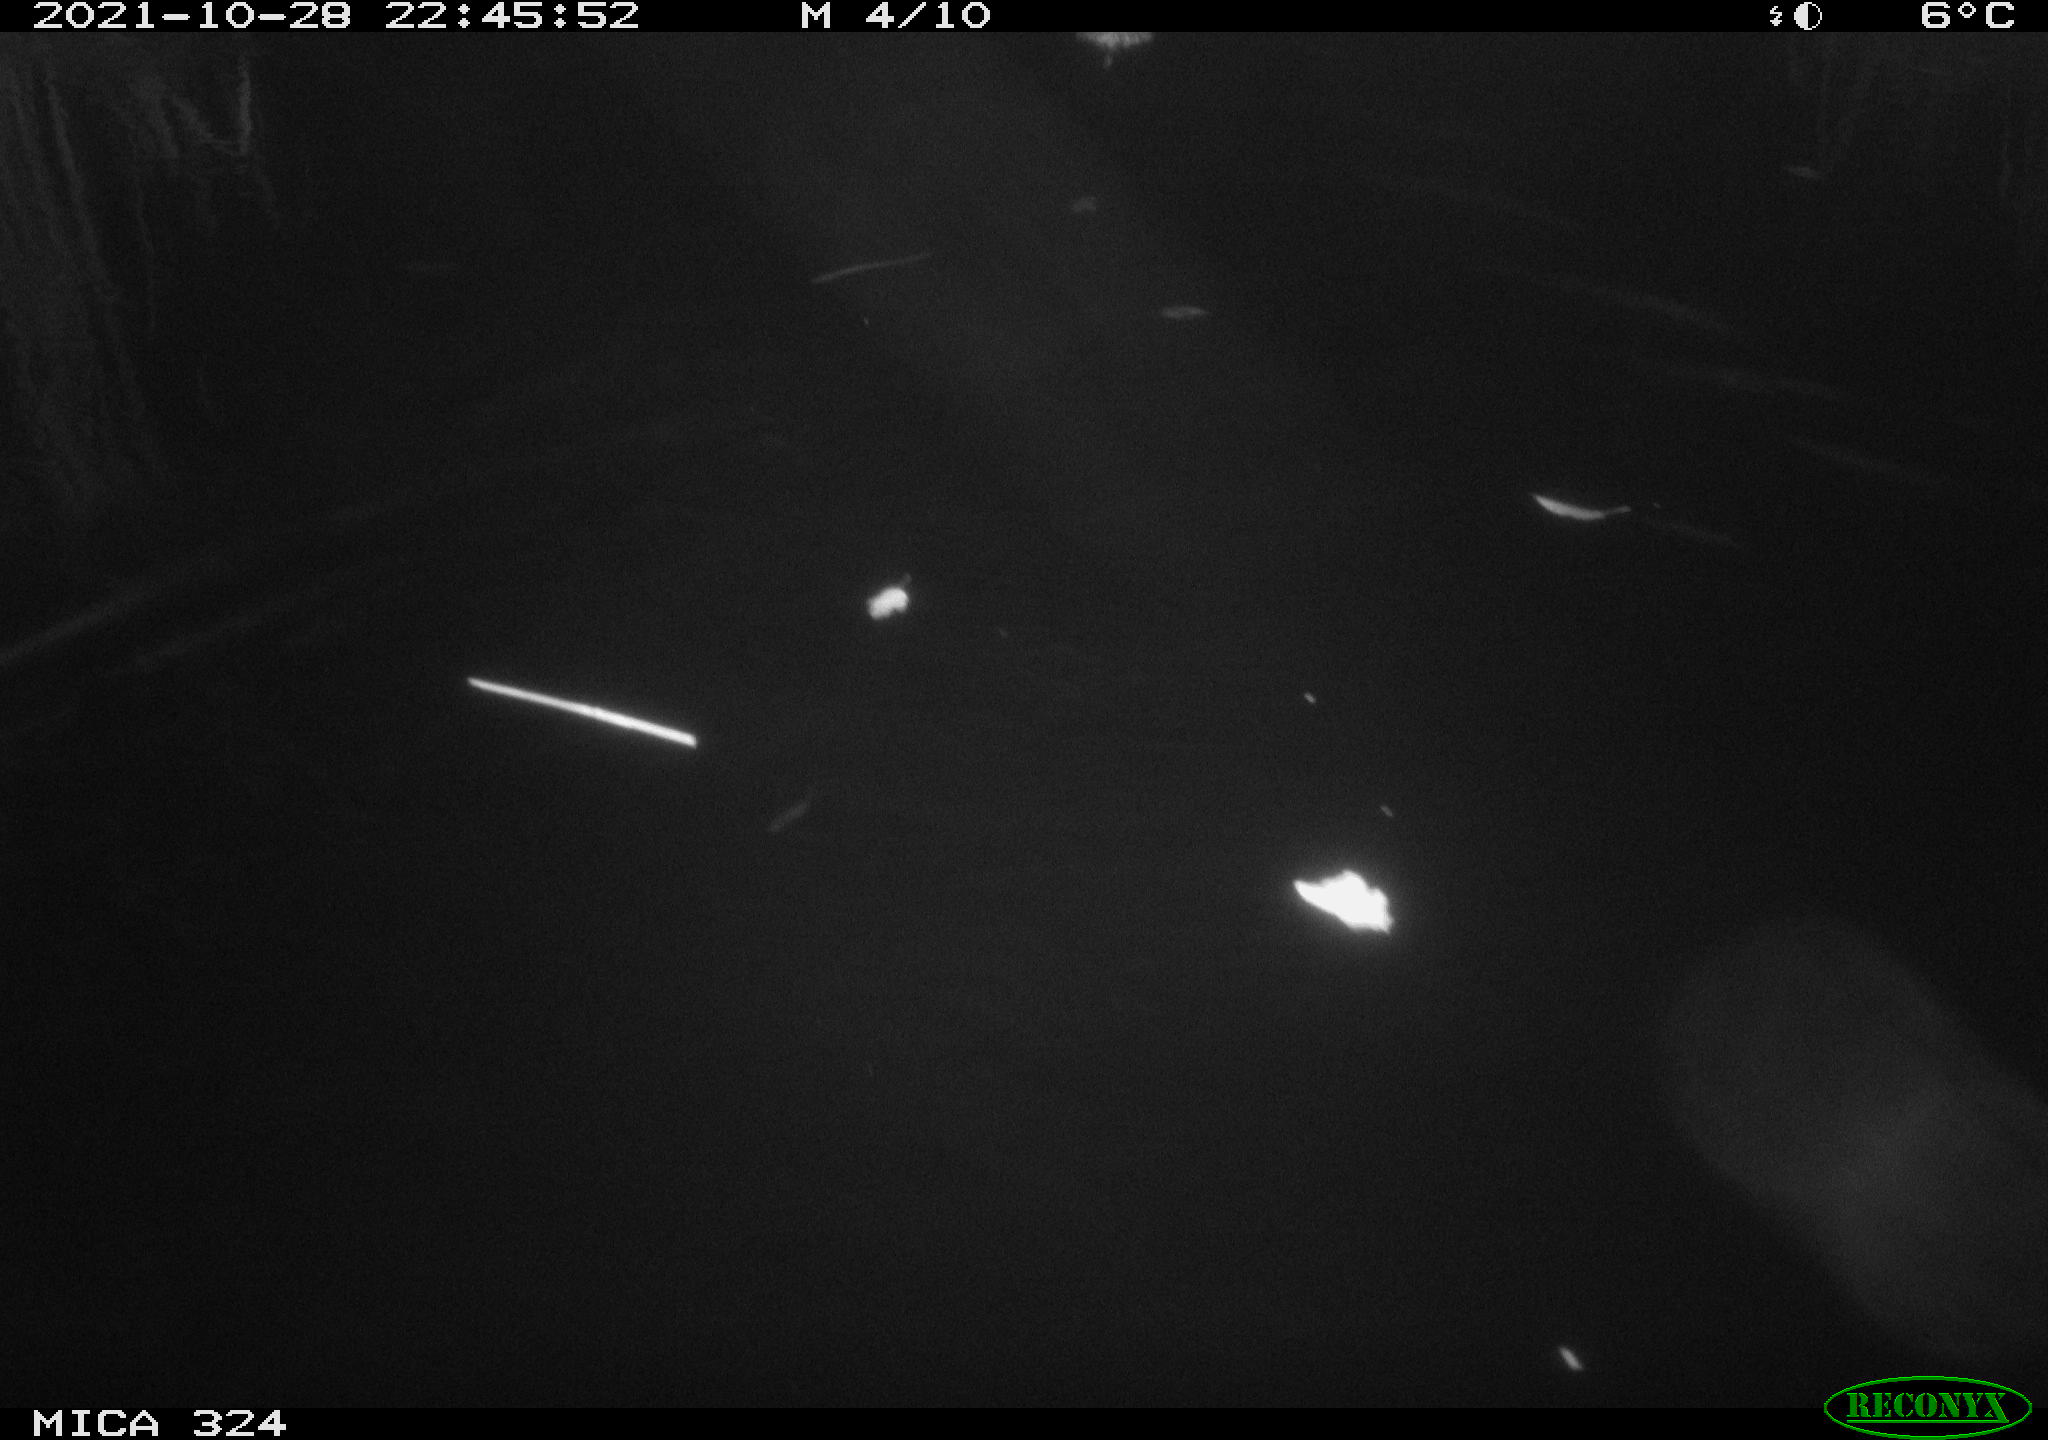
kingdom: Animalia
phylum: Chordata
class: Mammalia
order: Rodentia
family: Cricetidae
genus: Ondatra
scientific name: Ondatra zibethicus
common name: Muskrat
